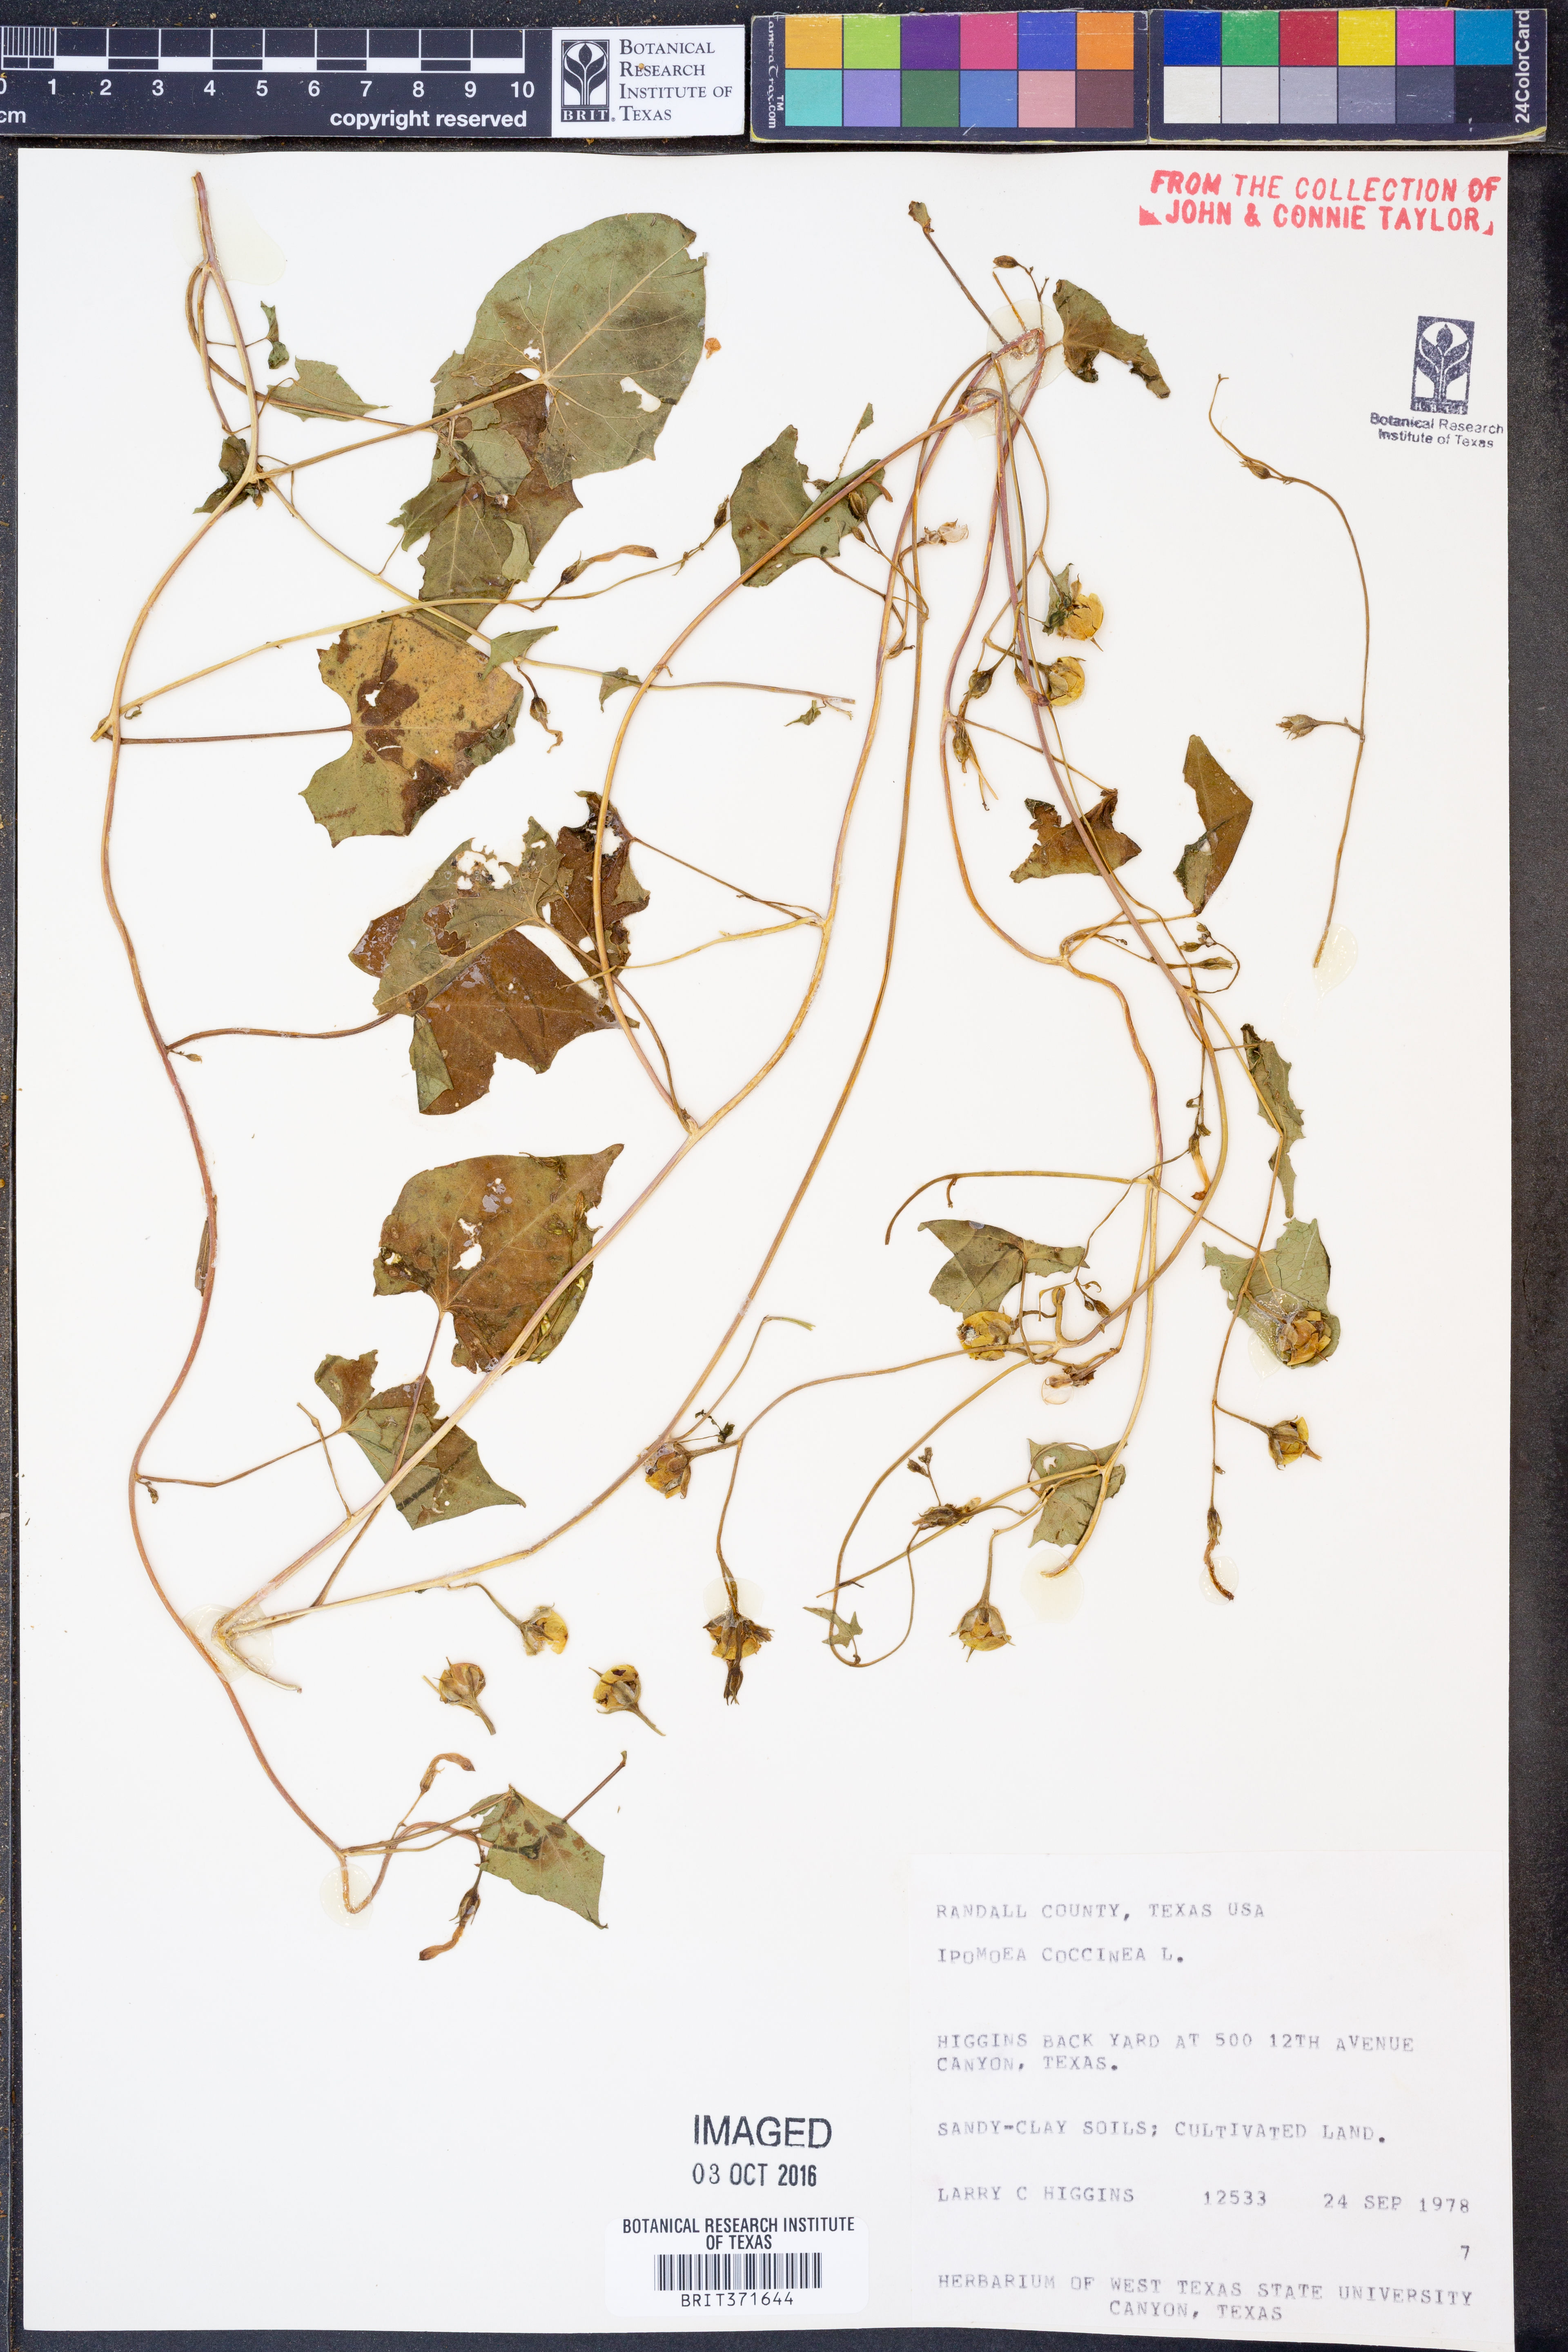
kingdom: Plantae
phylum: Tracheophyta
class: Magnoliopsida
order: Solanales
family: Convolvulaceae
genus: Ipomoea
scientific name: Ipomoea coccinea
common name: Red morning-glory
